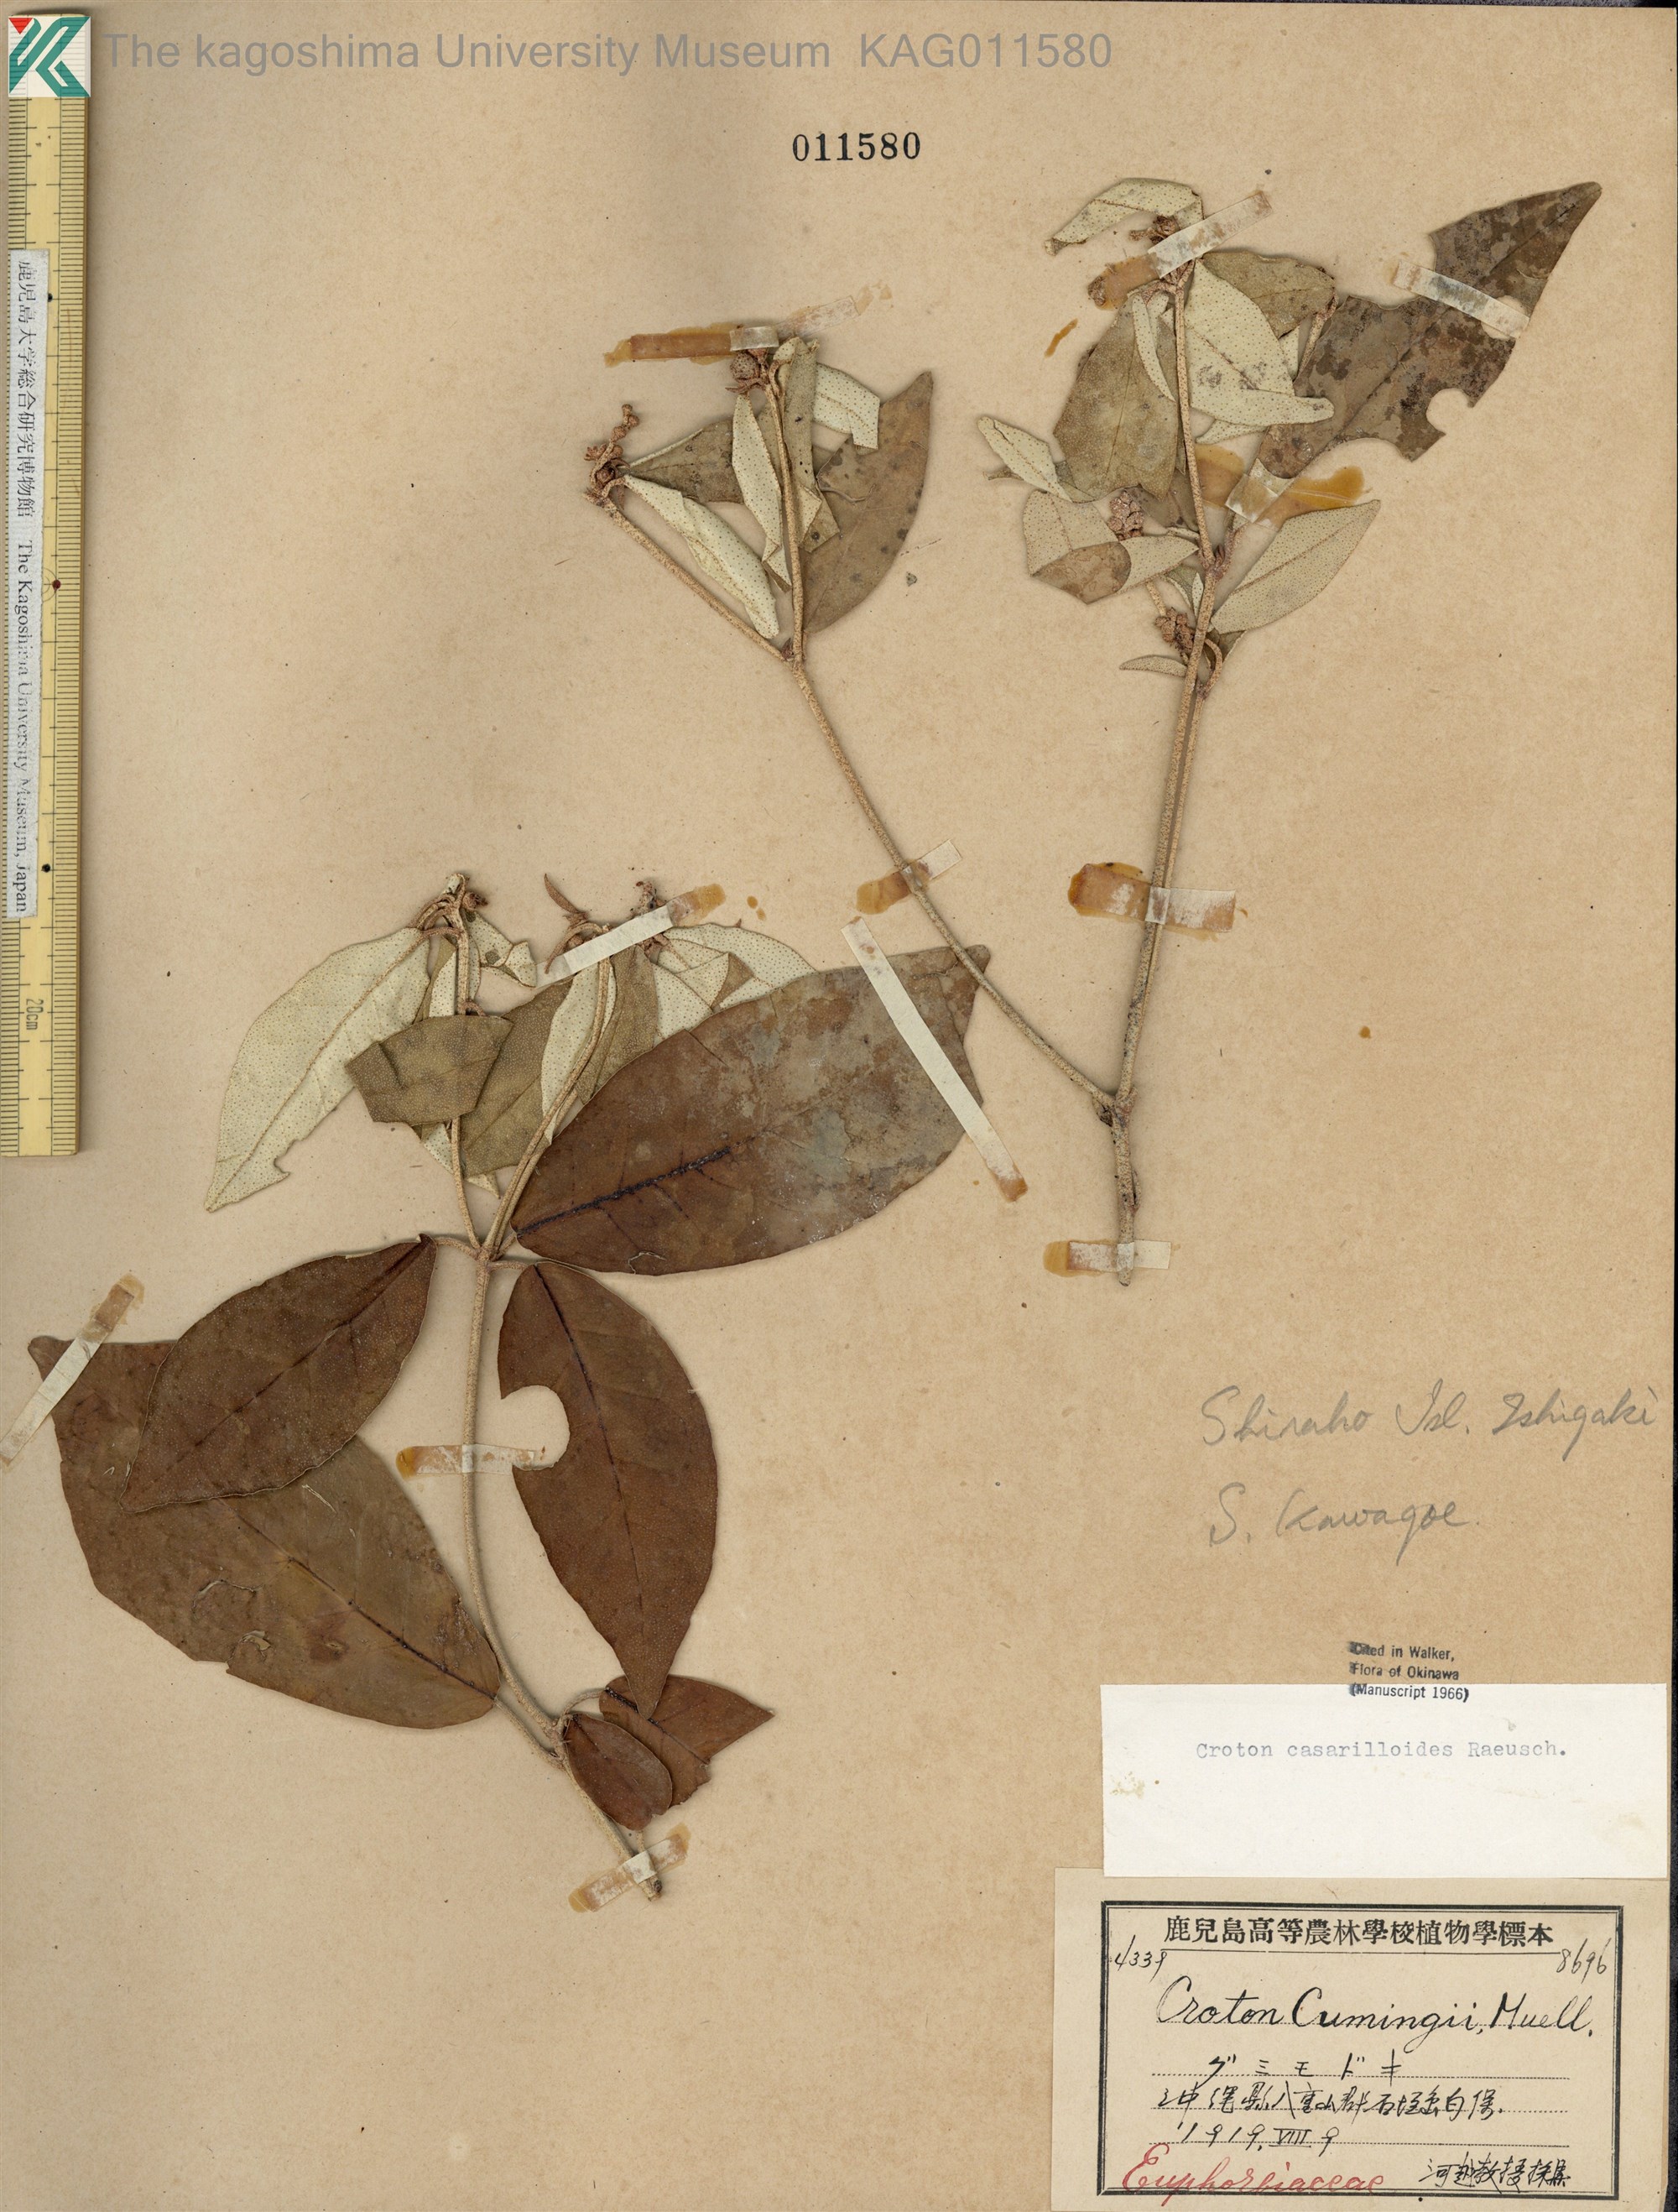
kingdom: Plantae
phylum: Tracheophyta
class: Magnoliopsida
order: Malpighiales
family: Euphorbiaceae
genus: Croton
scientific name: Croton cascarilloides
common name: グミモドキ
